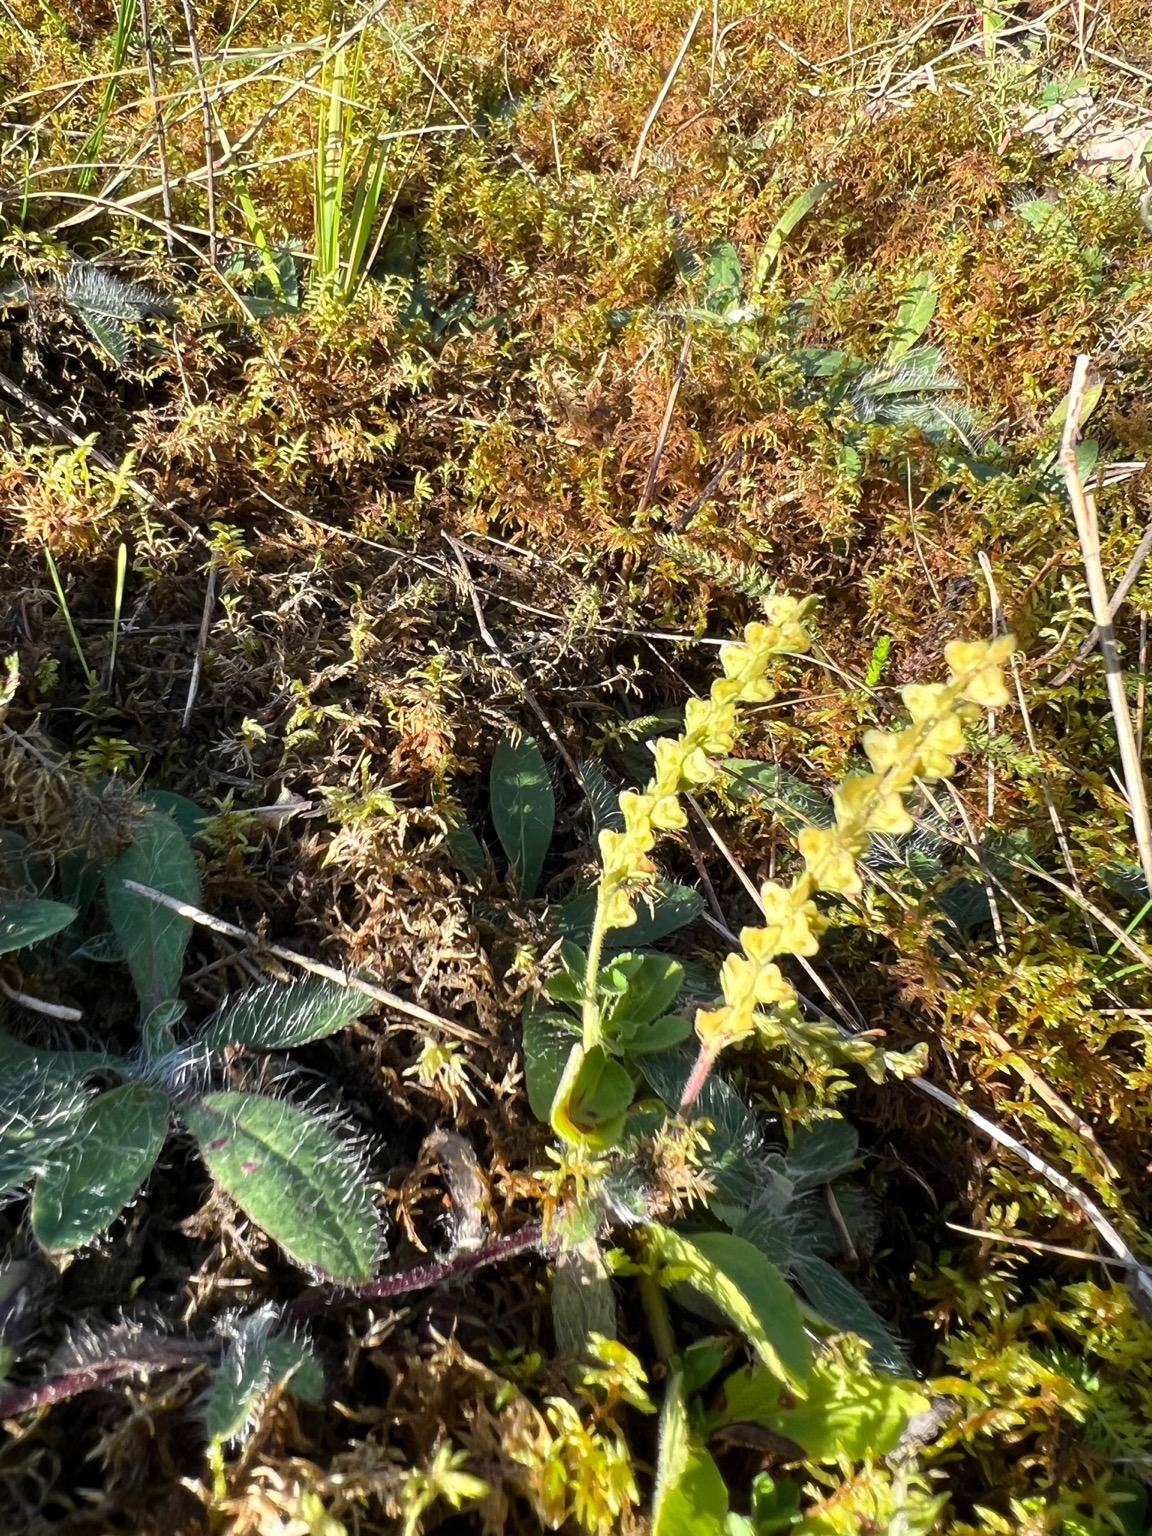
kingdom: Plantae
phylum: Tracheophyta
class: Magnoliopsida
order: Lamiales
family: Plantaginaceae
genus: Veronica
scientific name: Veronica officinalis
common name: Læge-ærenpris
